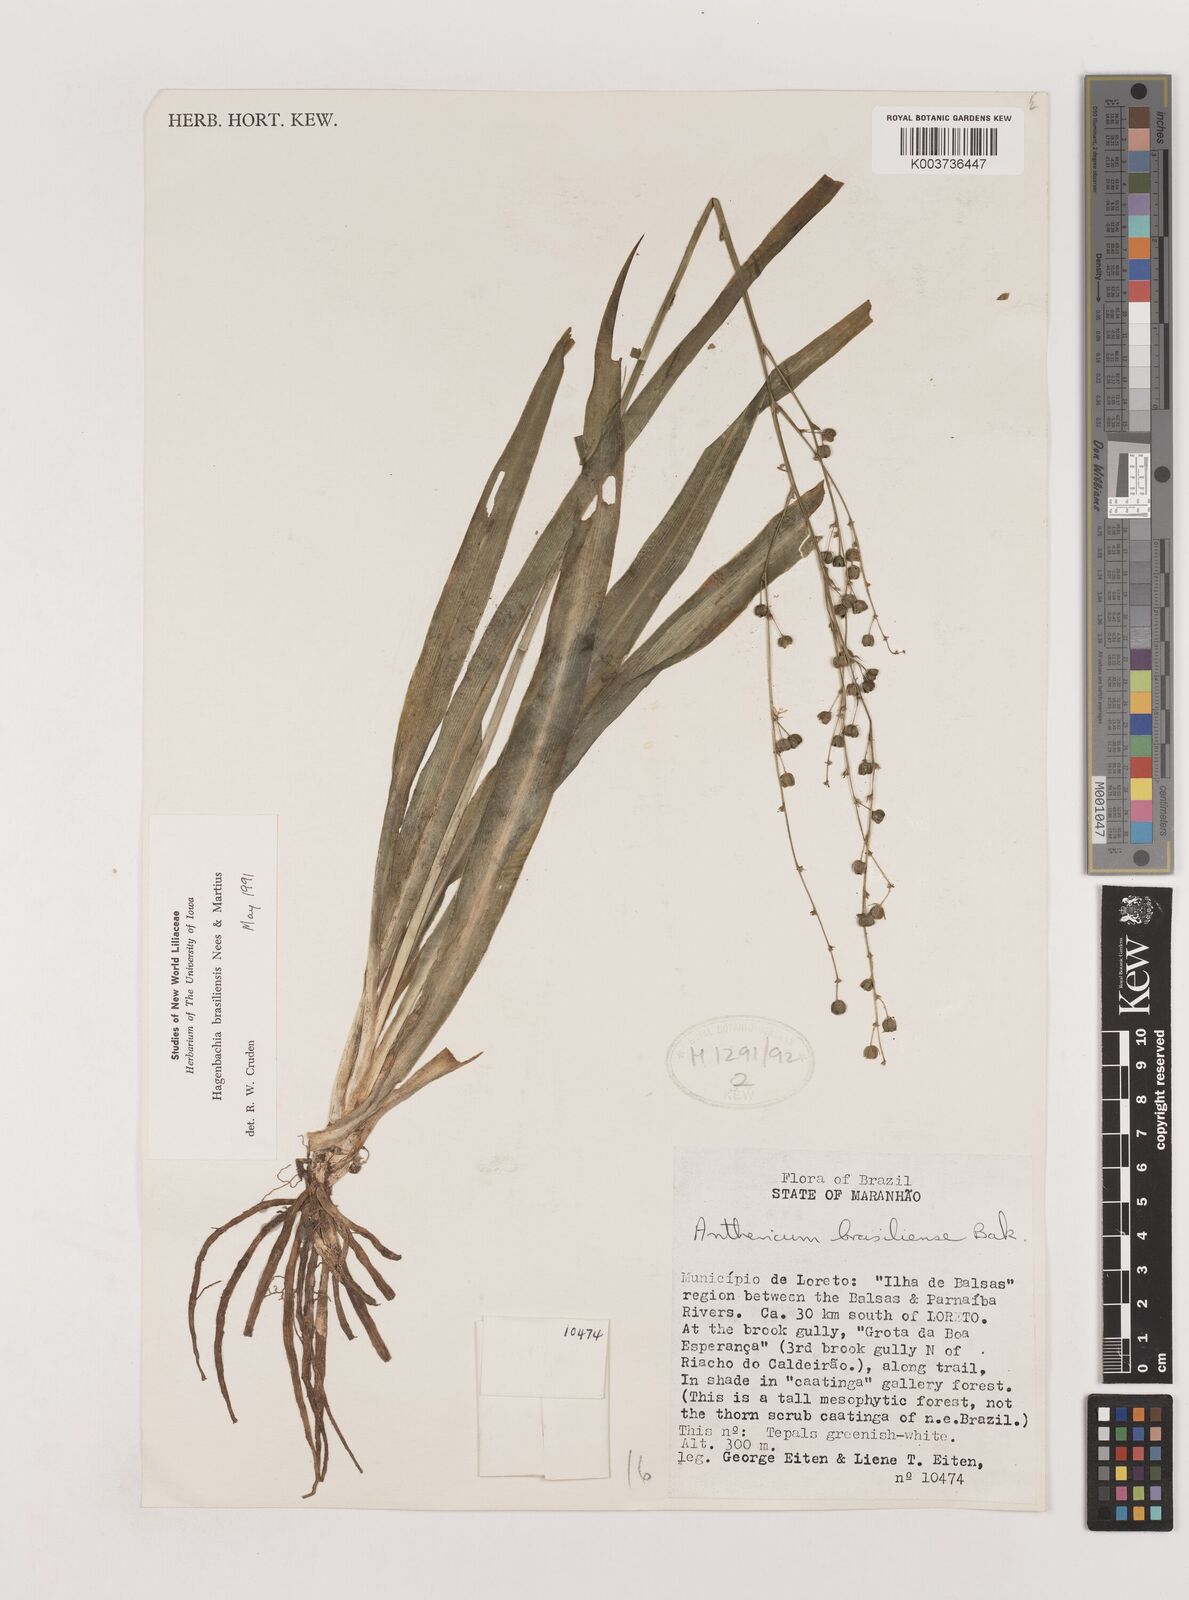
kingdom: Plantae
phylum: Tracheophyta
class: Liliopsida
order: Asparagales
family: Asparagaceae
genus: Hagenbachia
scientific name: Hagenbachia brasiliensis
